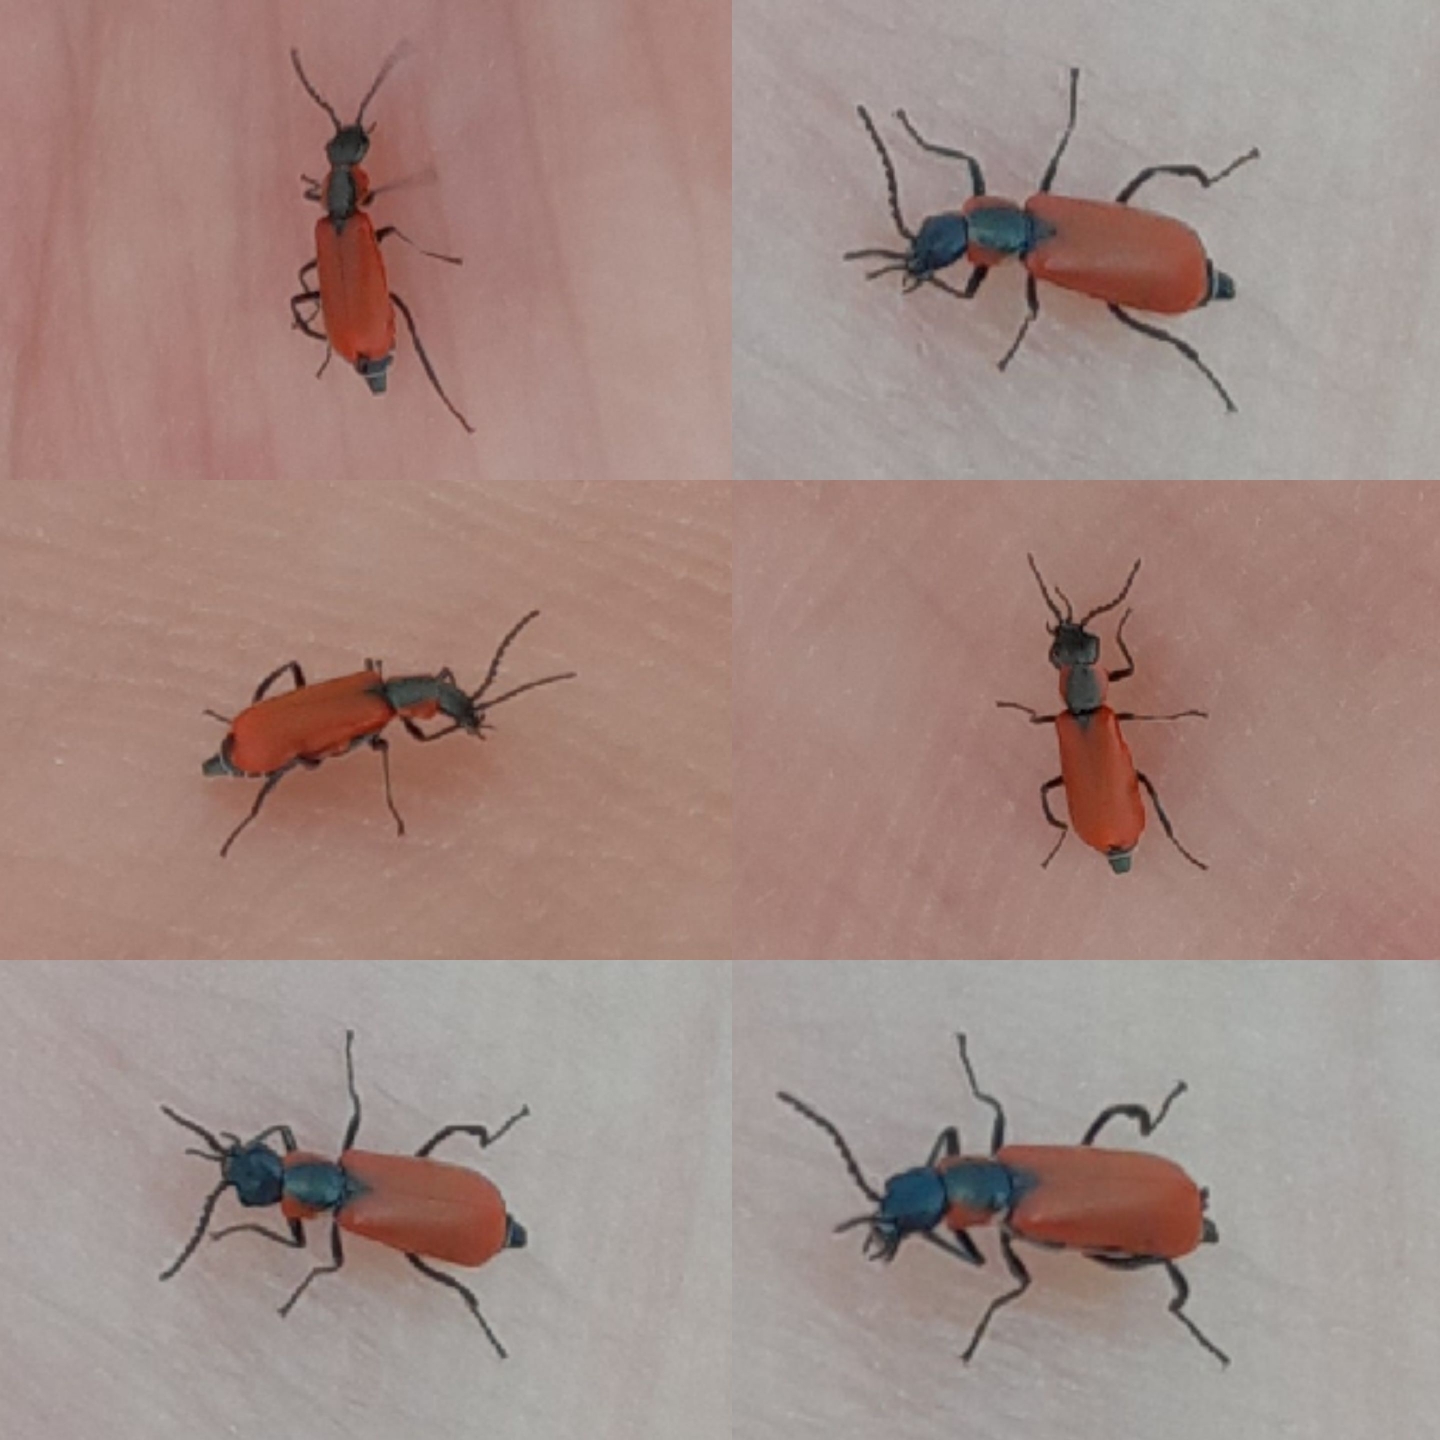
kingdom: Animalia
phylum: Arthropoda
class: Insecta
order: Coleoptera
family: Melyridae
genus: Anthocomus
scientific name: Anthocomus rufus
